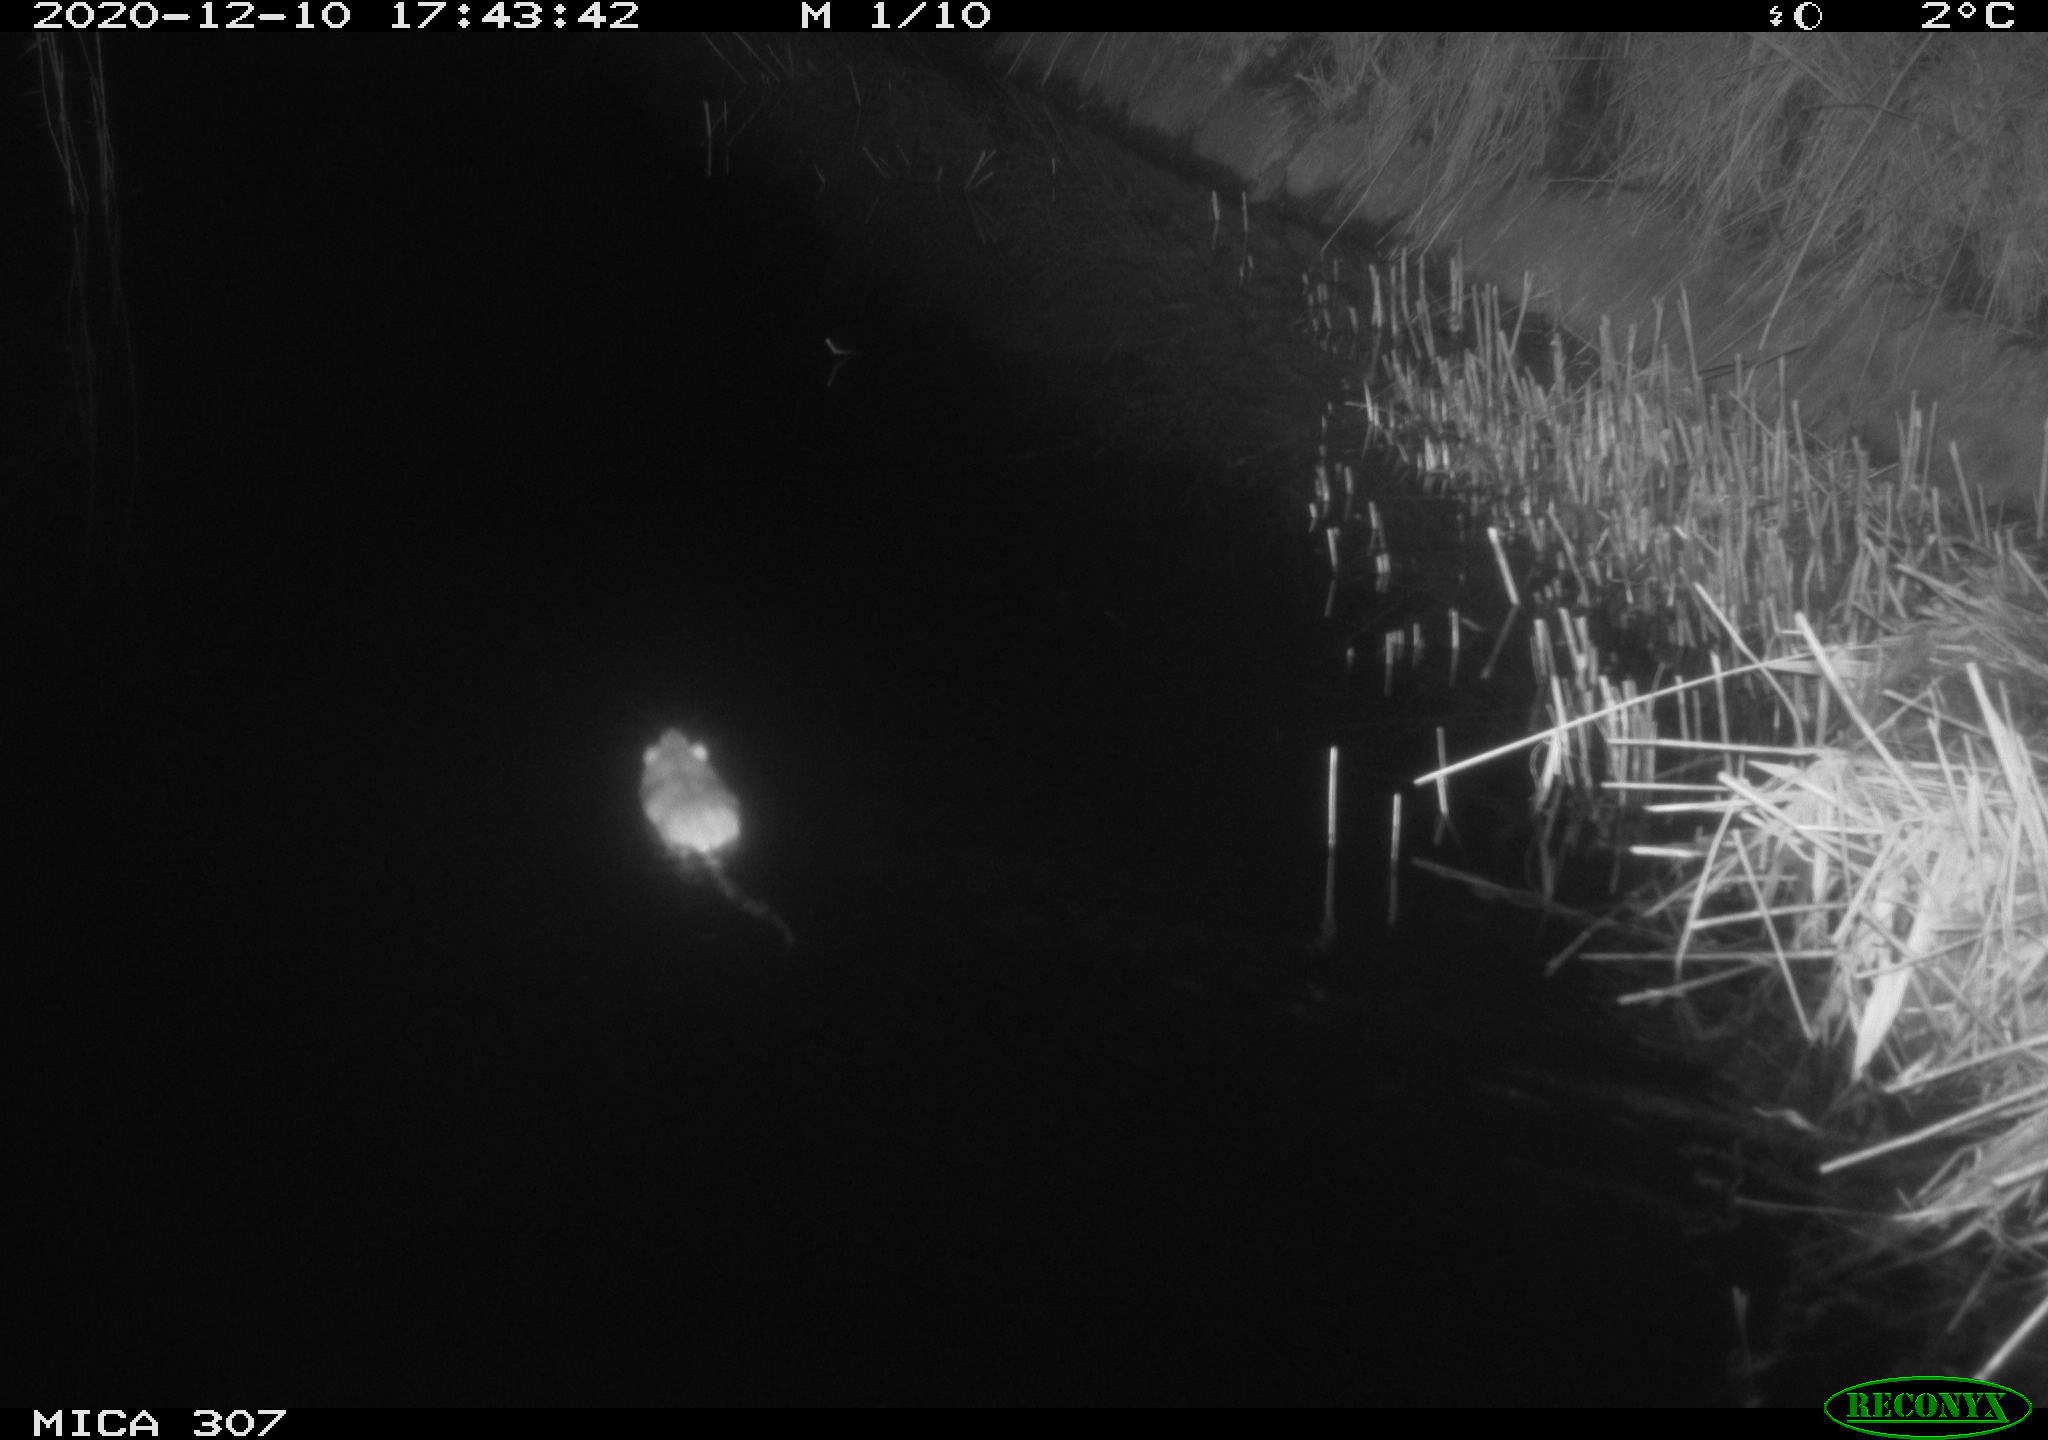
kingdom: Animalia
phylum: Chordata
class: Mammalia
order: Rodentia
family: Muridae
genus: Rattus
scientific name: Rattus norvegicus
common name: Brown rat
